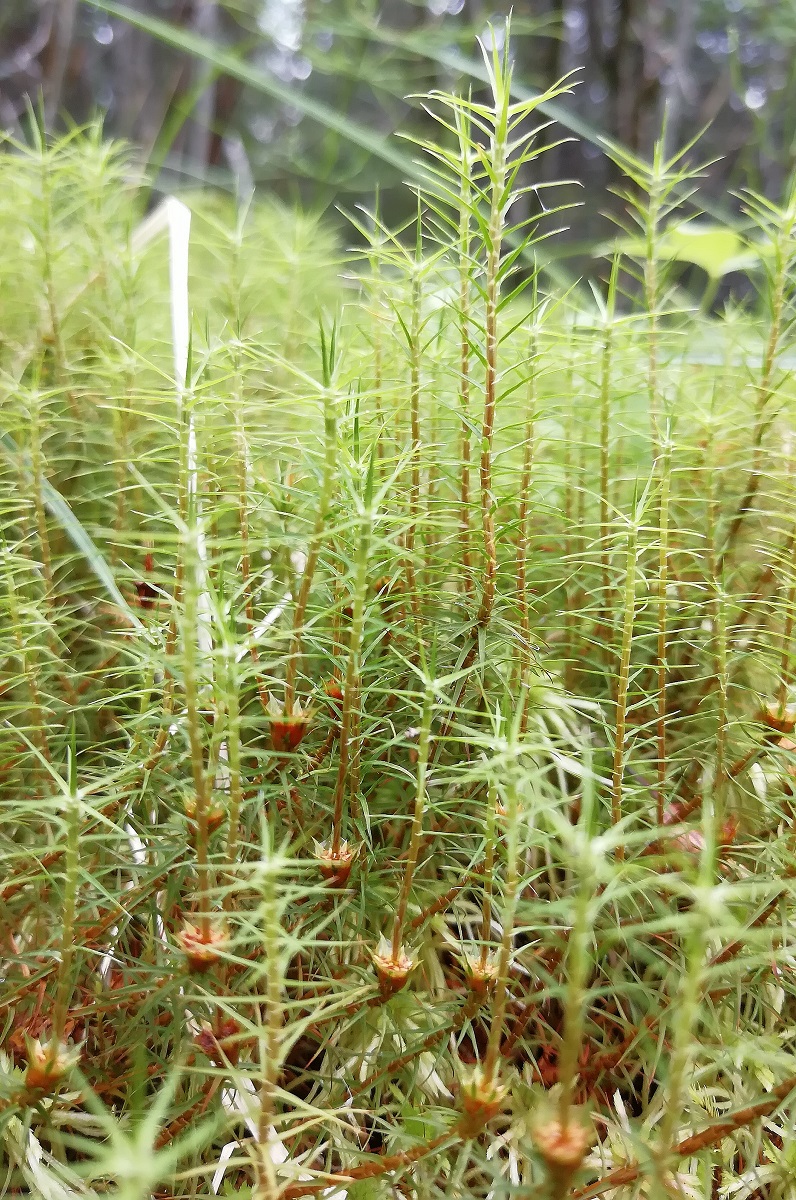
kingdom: Plantae
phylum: Bryophyta
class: Polytrichopsida
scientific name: Polytrichopsida
